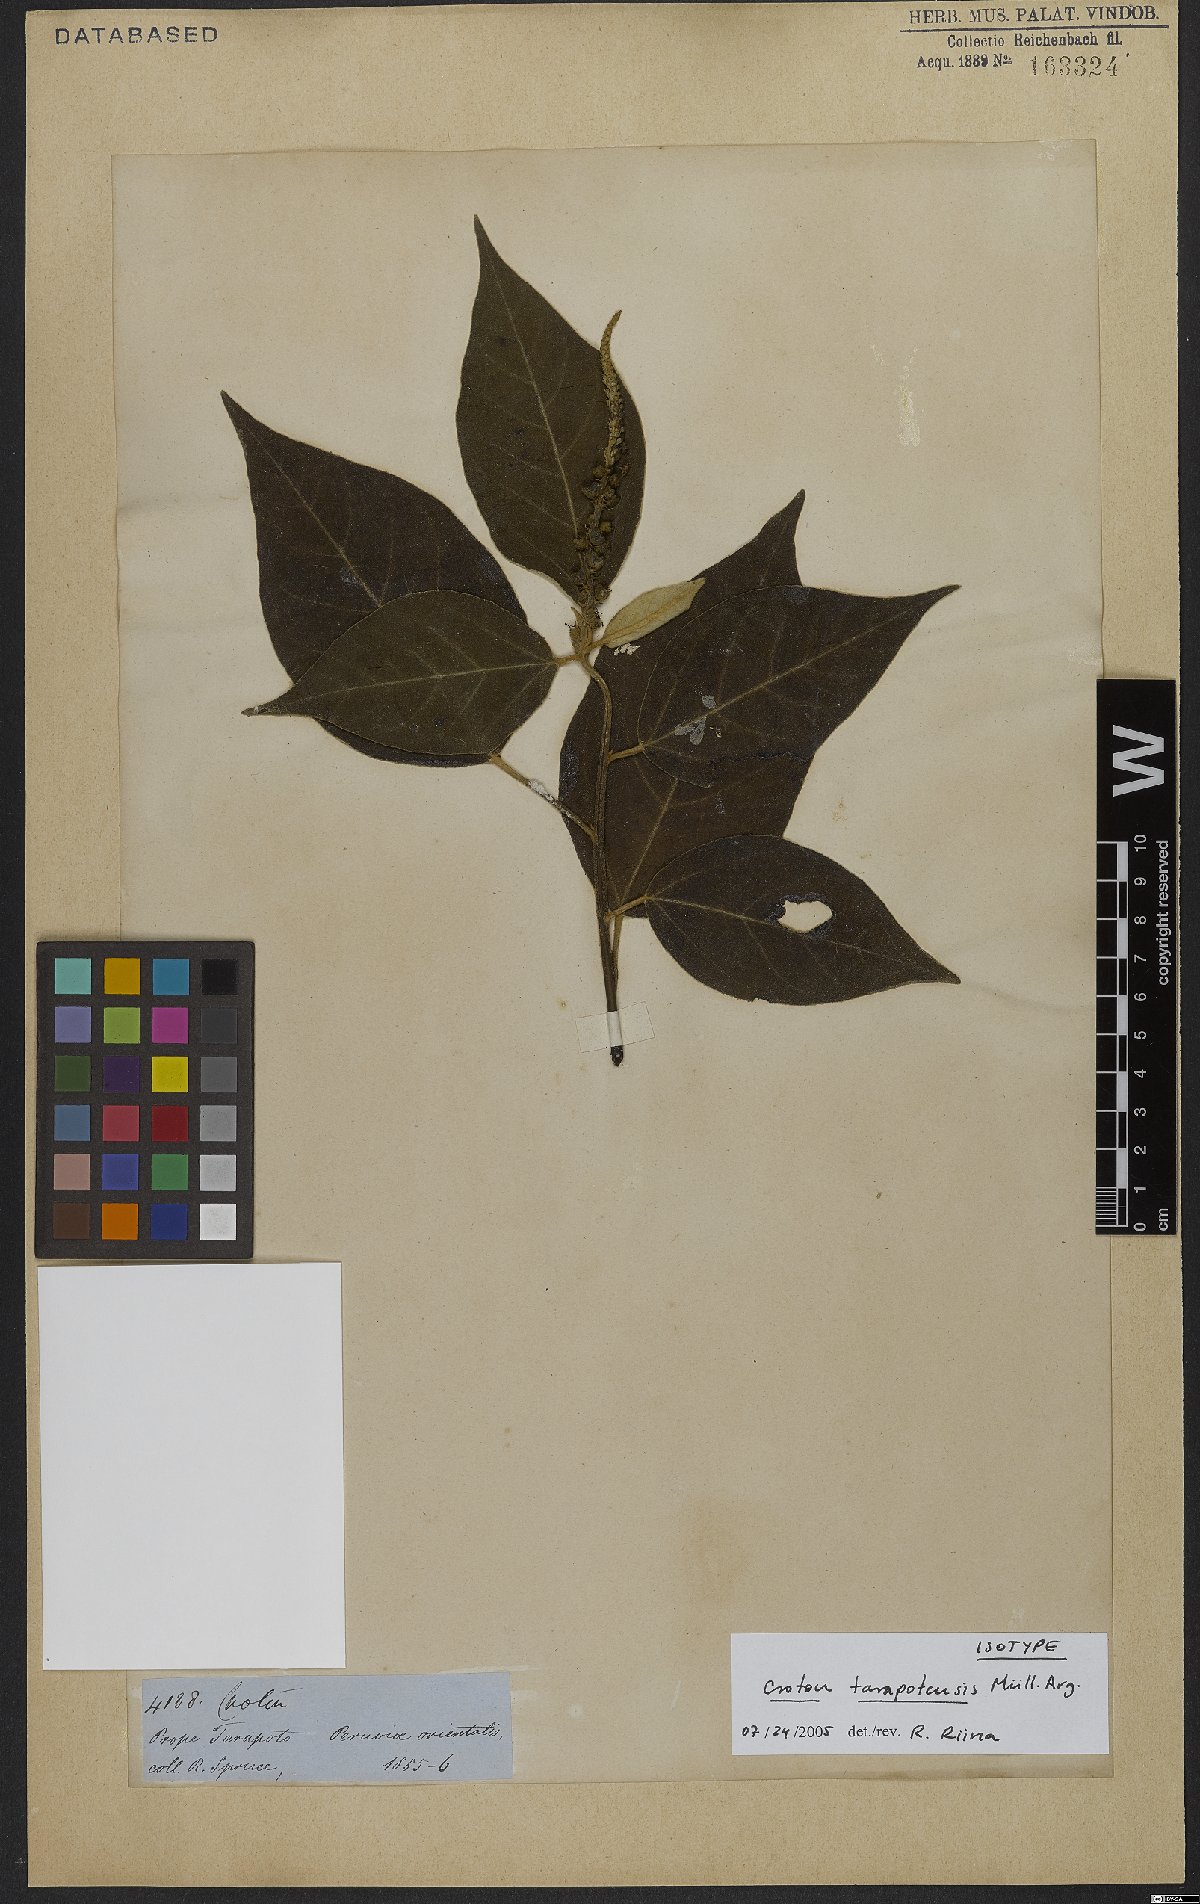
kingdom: Plantae
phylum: Tracheophyta
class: Magnoliopsida
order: Malpighiales
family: Euphorbiaceae
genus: Croton
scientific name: Croton tarapotensis
